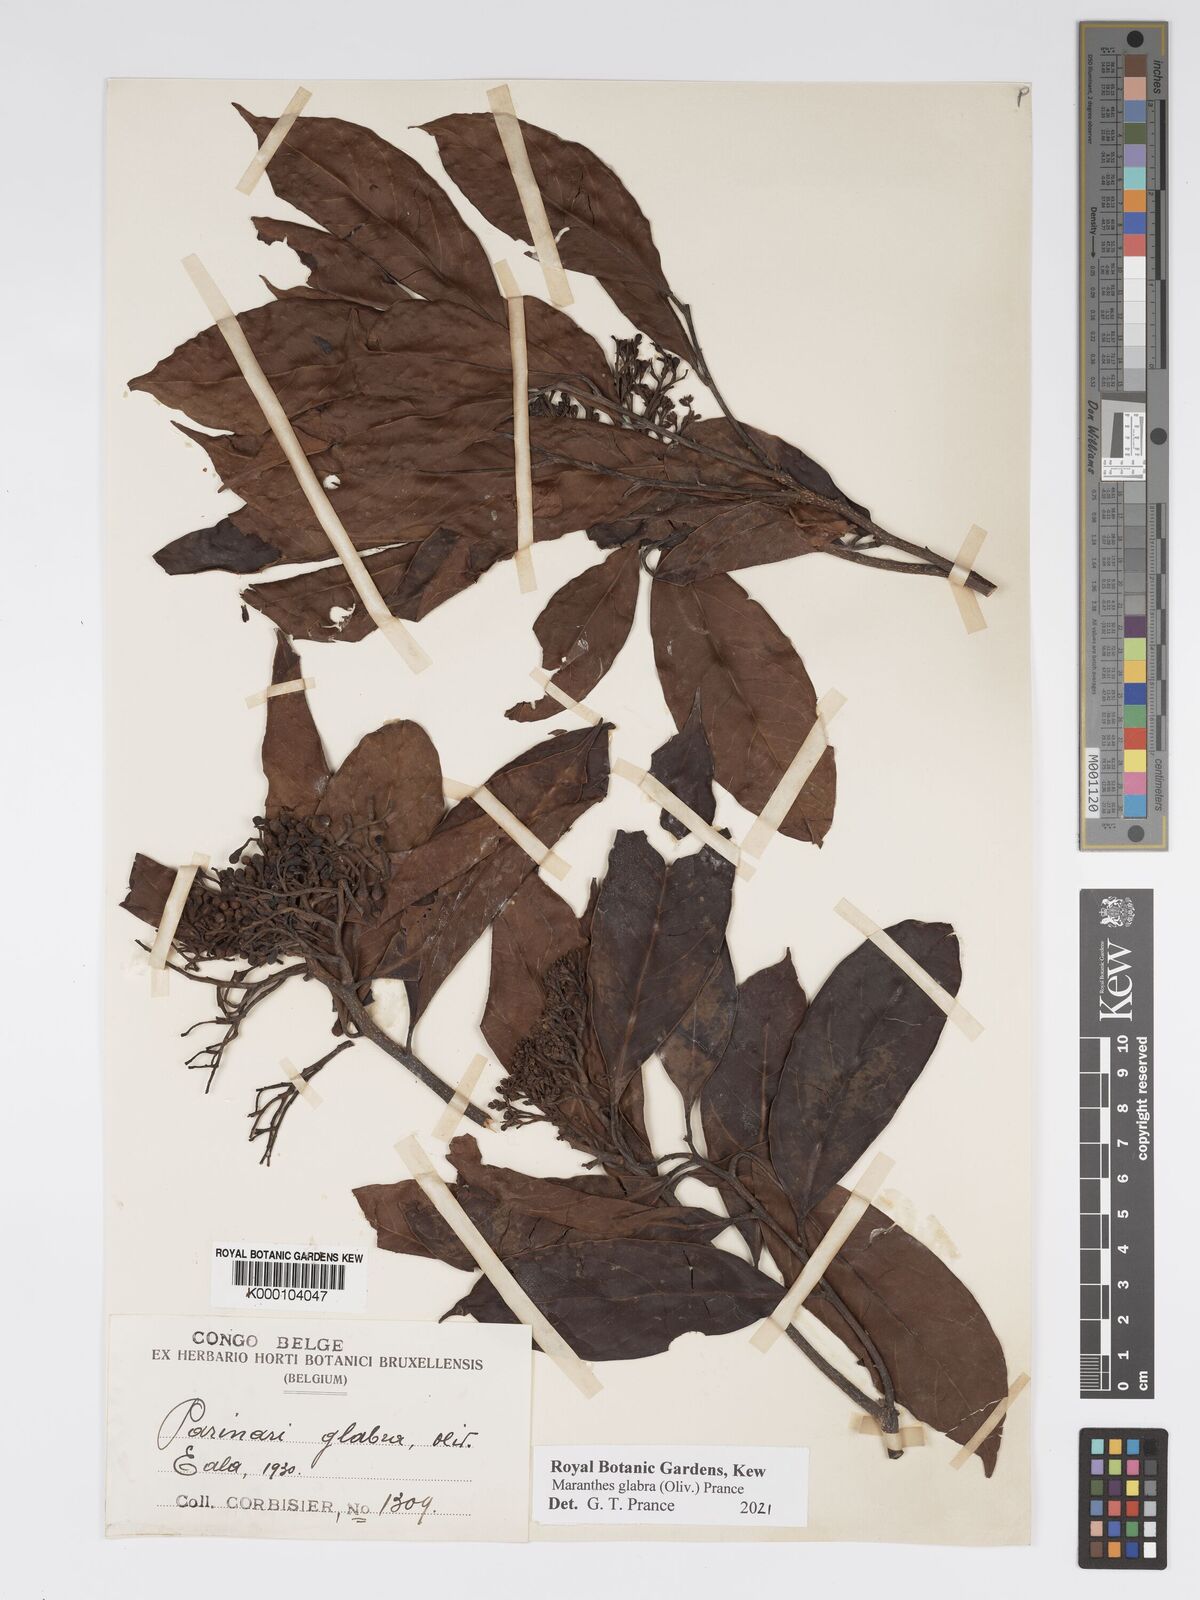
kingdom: Plantae
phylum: Tracheophyta
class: Magnoliopsida
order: Malpighiales
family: Chrysobalanaceae
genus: Maranthes
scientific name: Maranthes glabra
